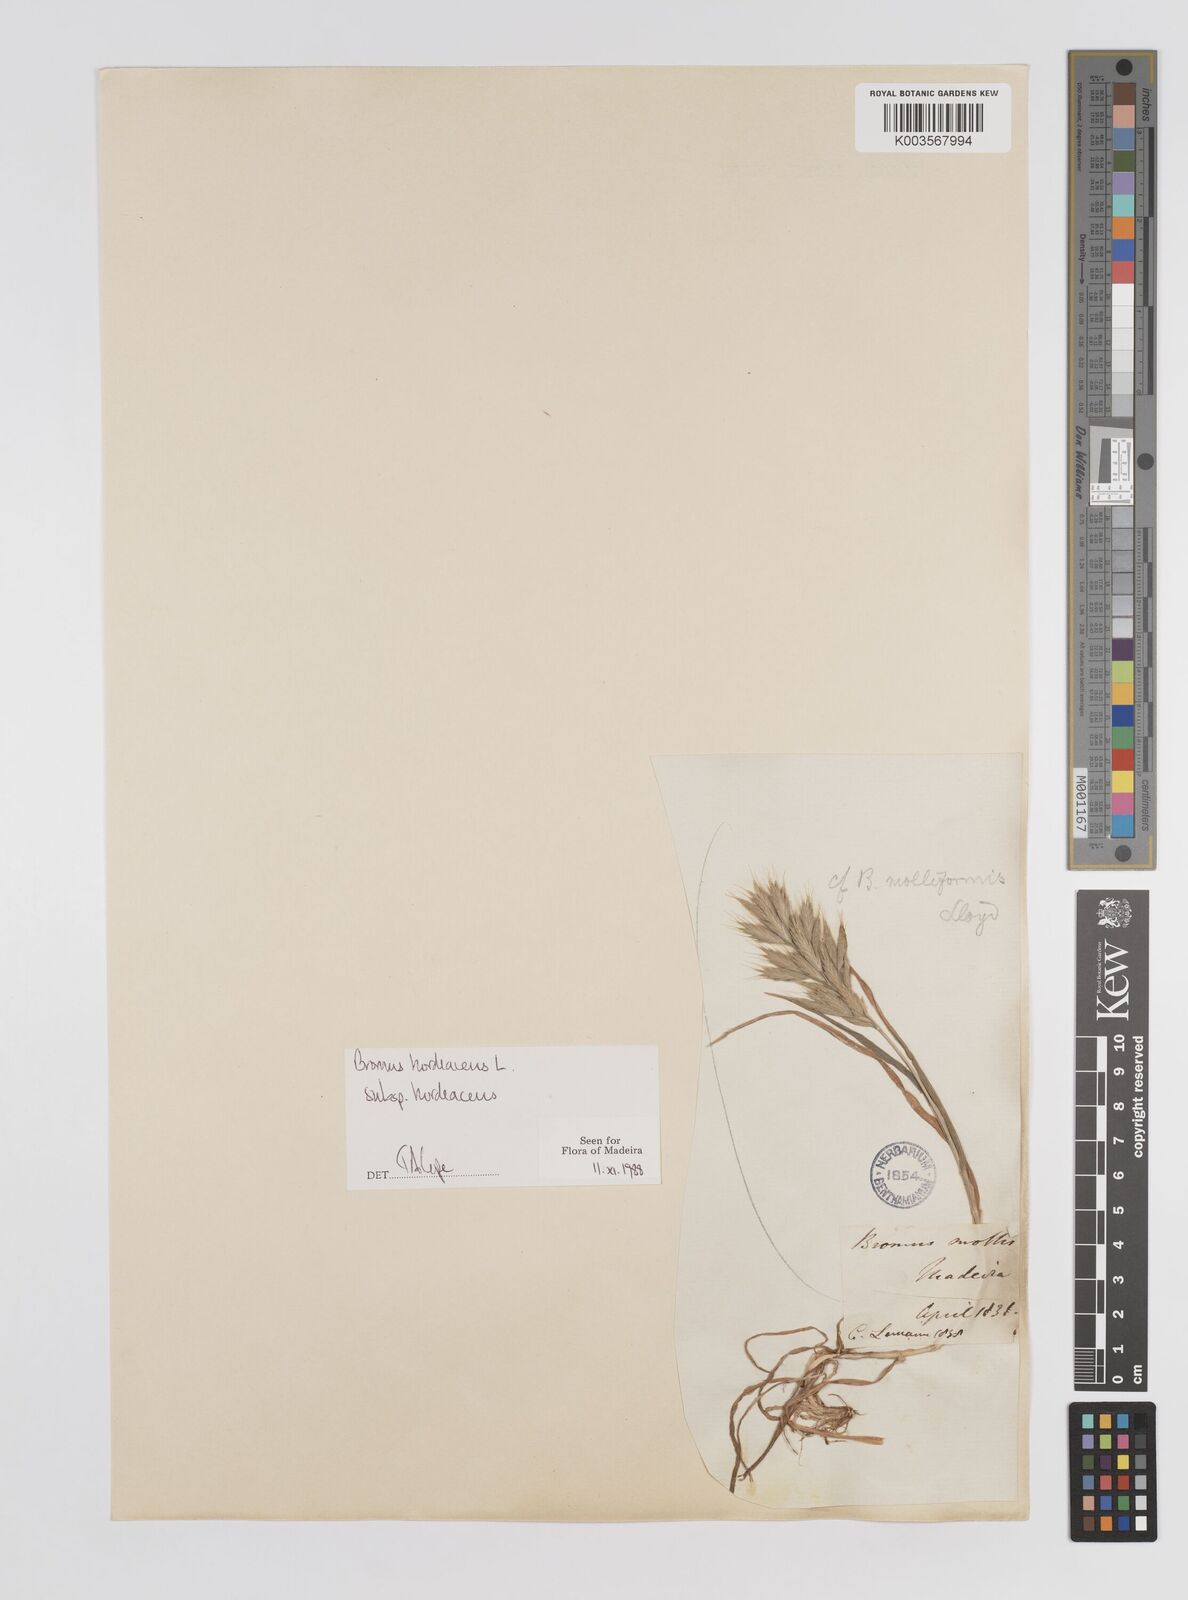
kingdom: Plantae
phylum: Tracheophyta
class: Liliopsida
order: Poales
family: Poaceae
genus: Bromus
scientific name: Bromus
